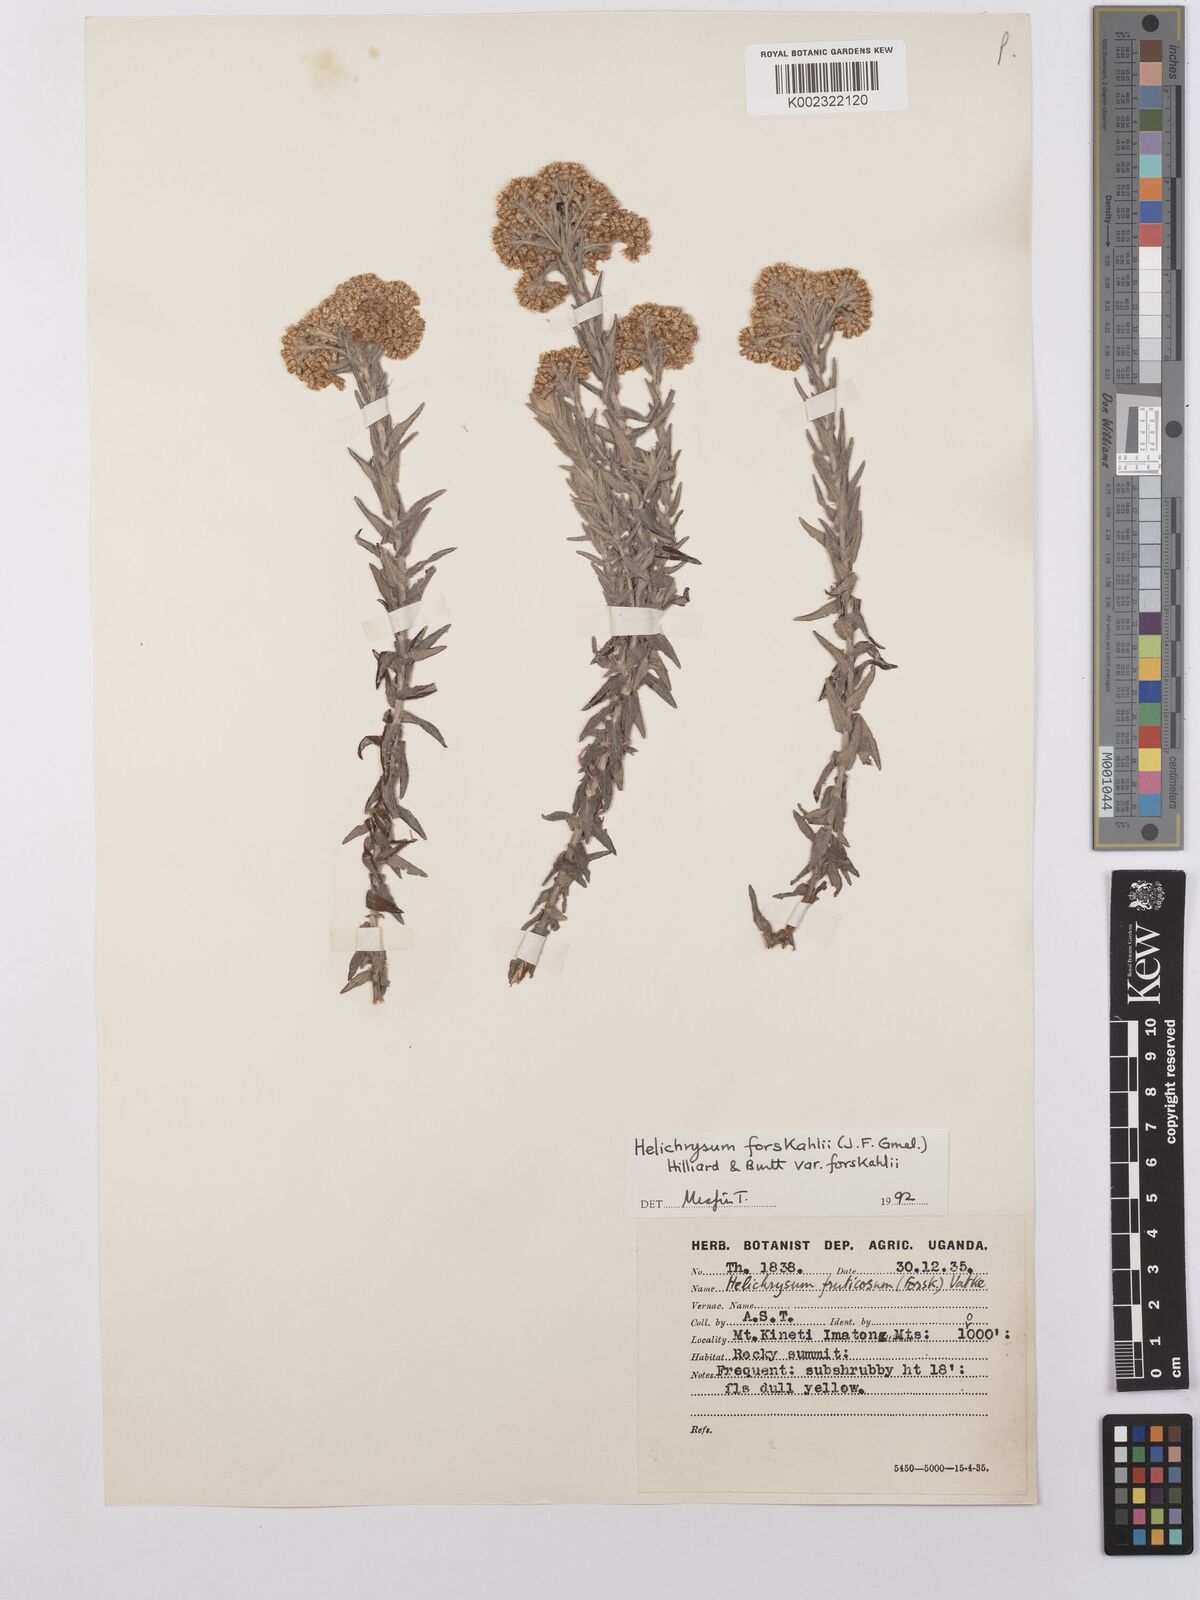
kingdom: Plantae
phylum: Tracheophyta
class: Magnoliopsida
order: Asterales
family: Asteraceae
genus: Helichrysum
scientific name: Helichrysum forskahlii
